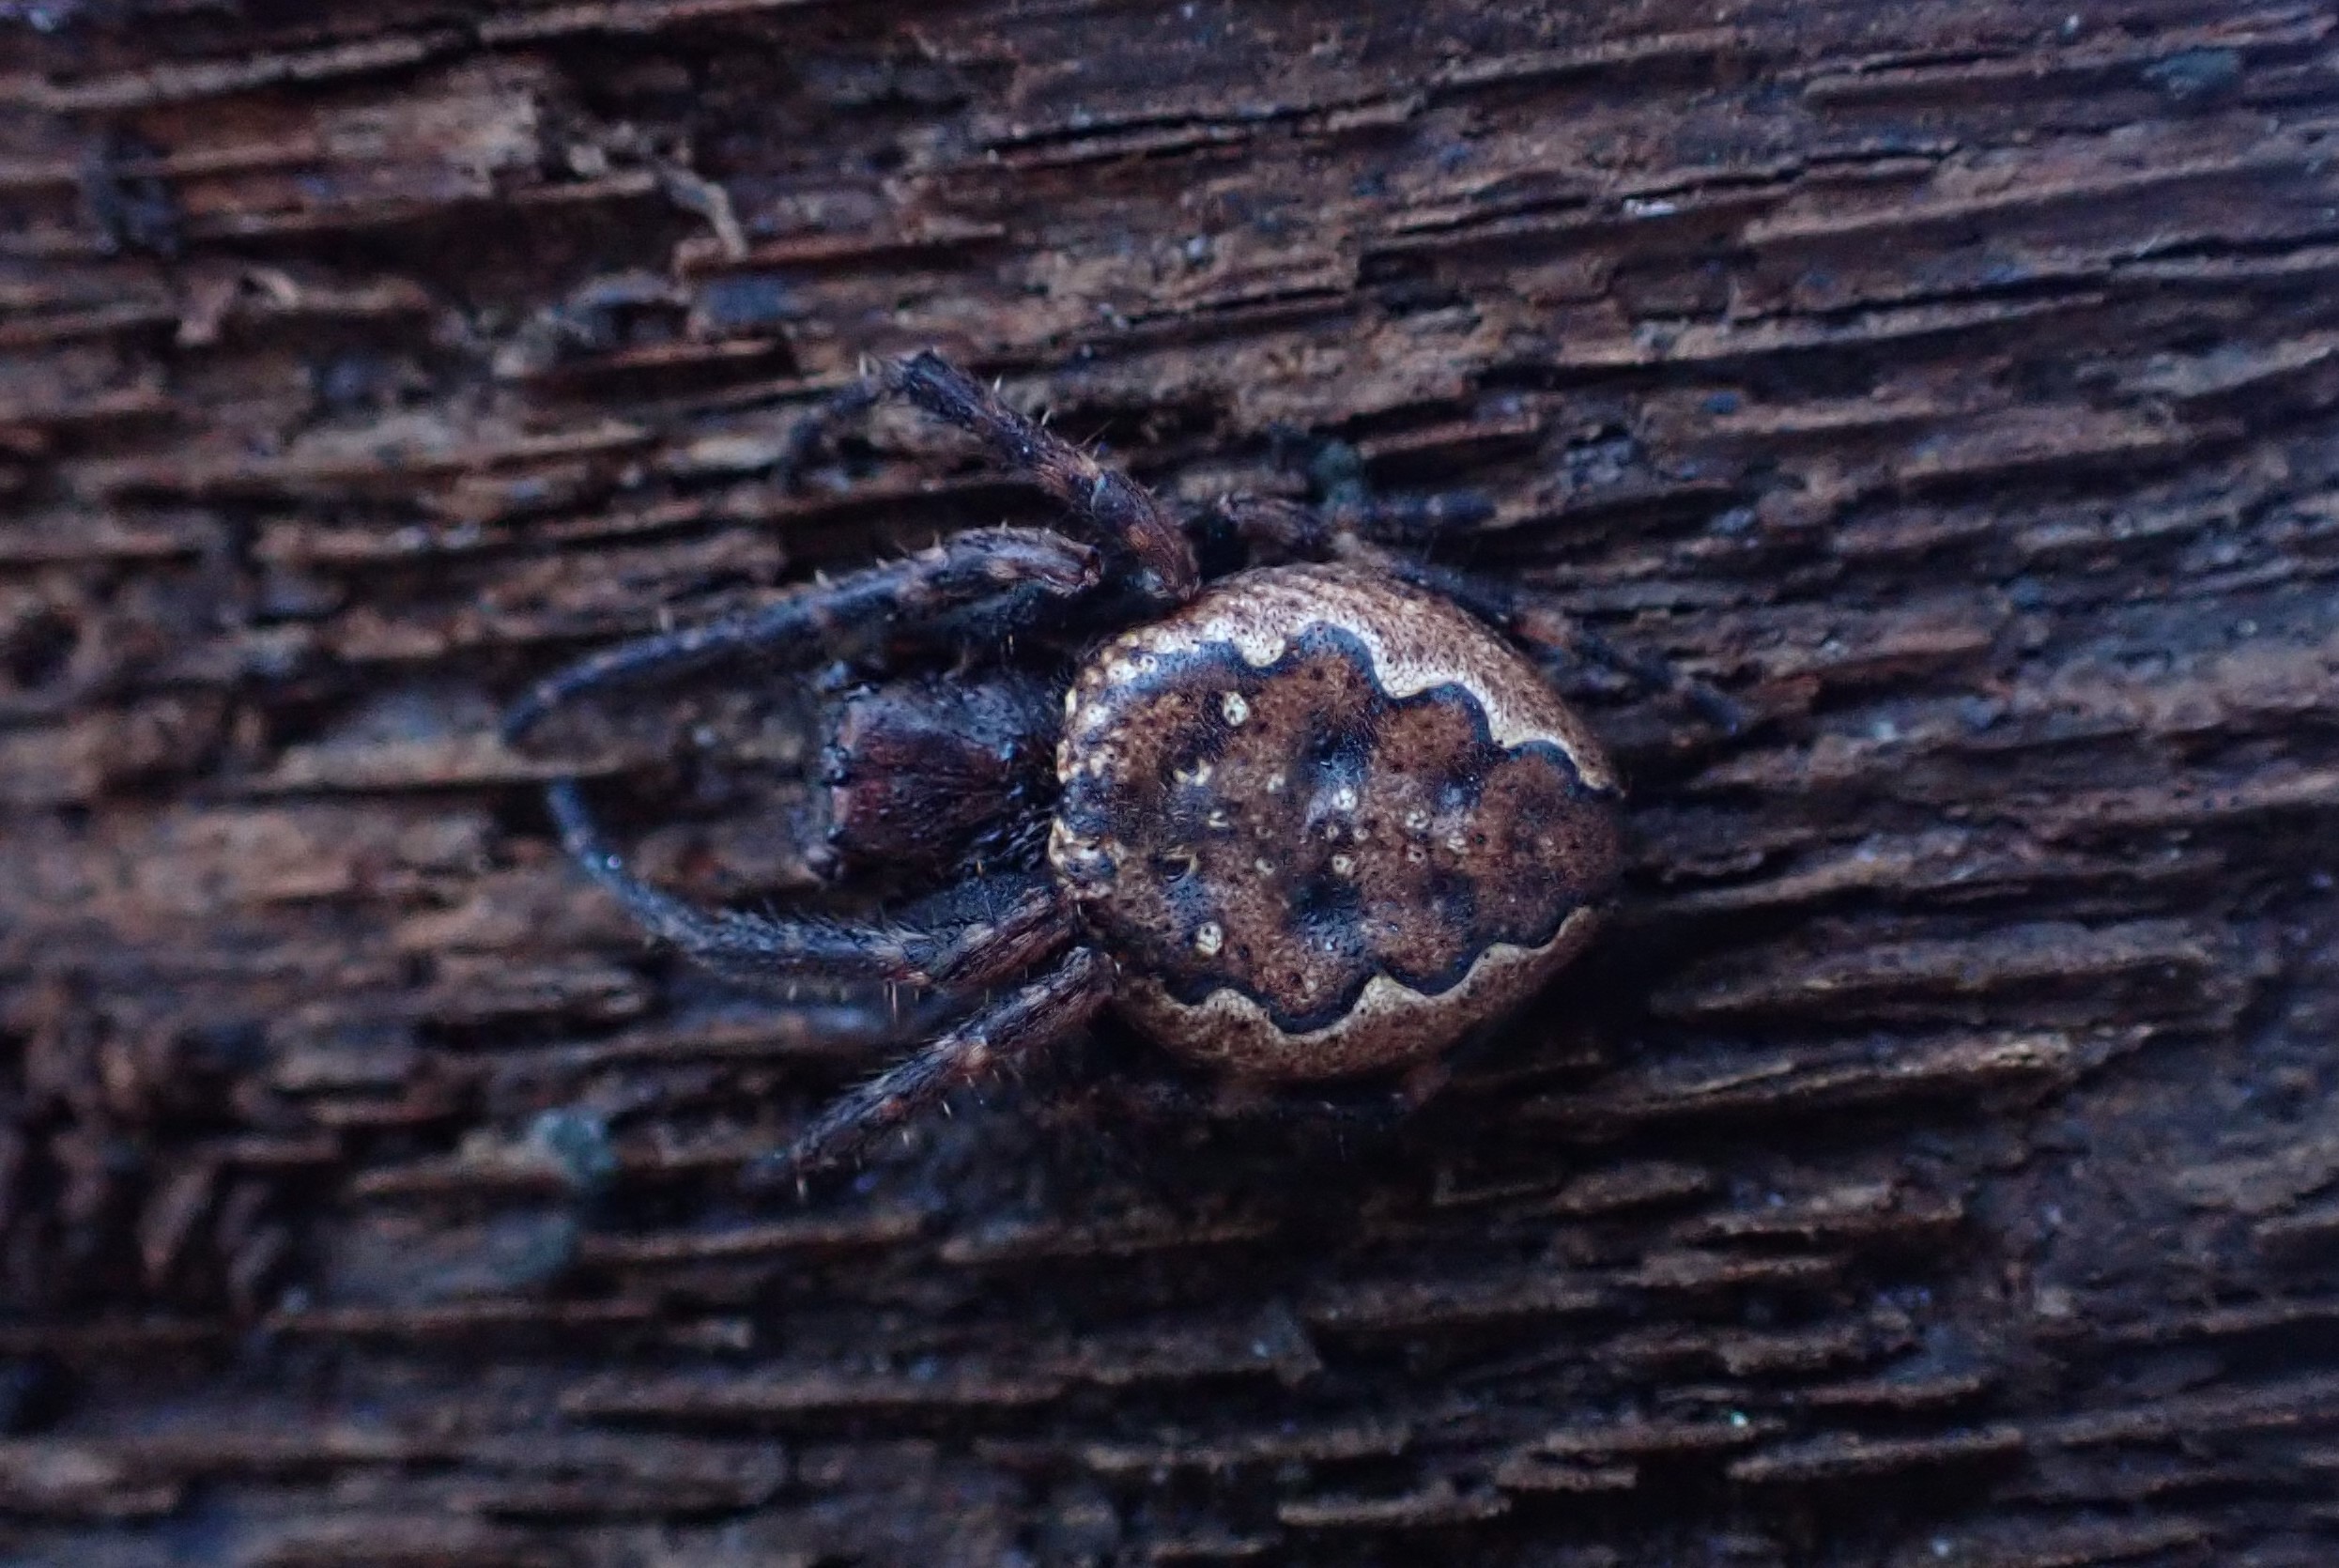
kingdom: Animalia
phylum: Arthropoda
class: Arachnida
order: Araneae
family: Araneidae
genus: Nuctenea
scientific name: Nuctenea umbratica
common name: Flad hjulspinder
